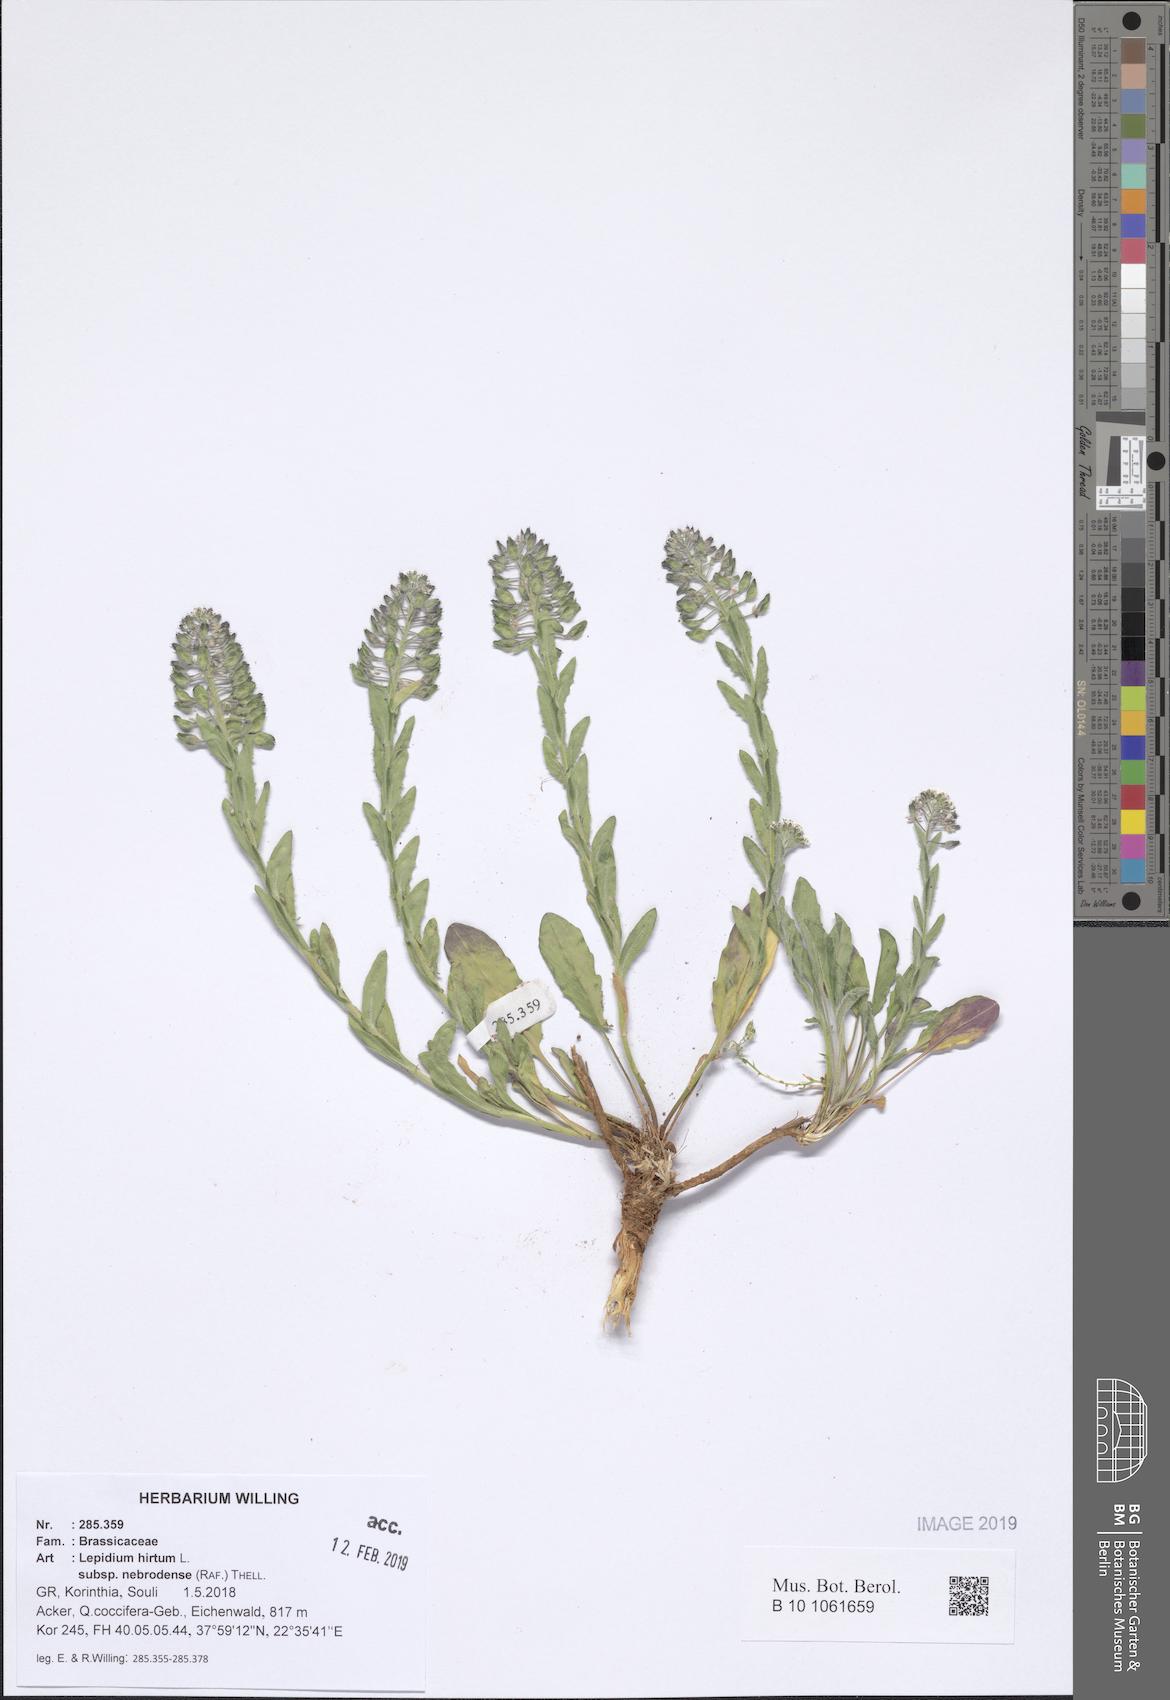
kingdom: Plantae
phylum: Tracheophyta
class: Magnoliopsida
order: Brassicales
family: Brassicaceae
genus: Lepidium
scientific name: Lepidium hirtum
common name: Mediterranean pepperweed
